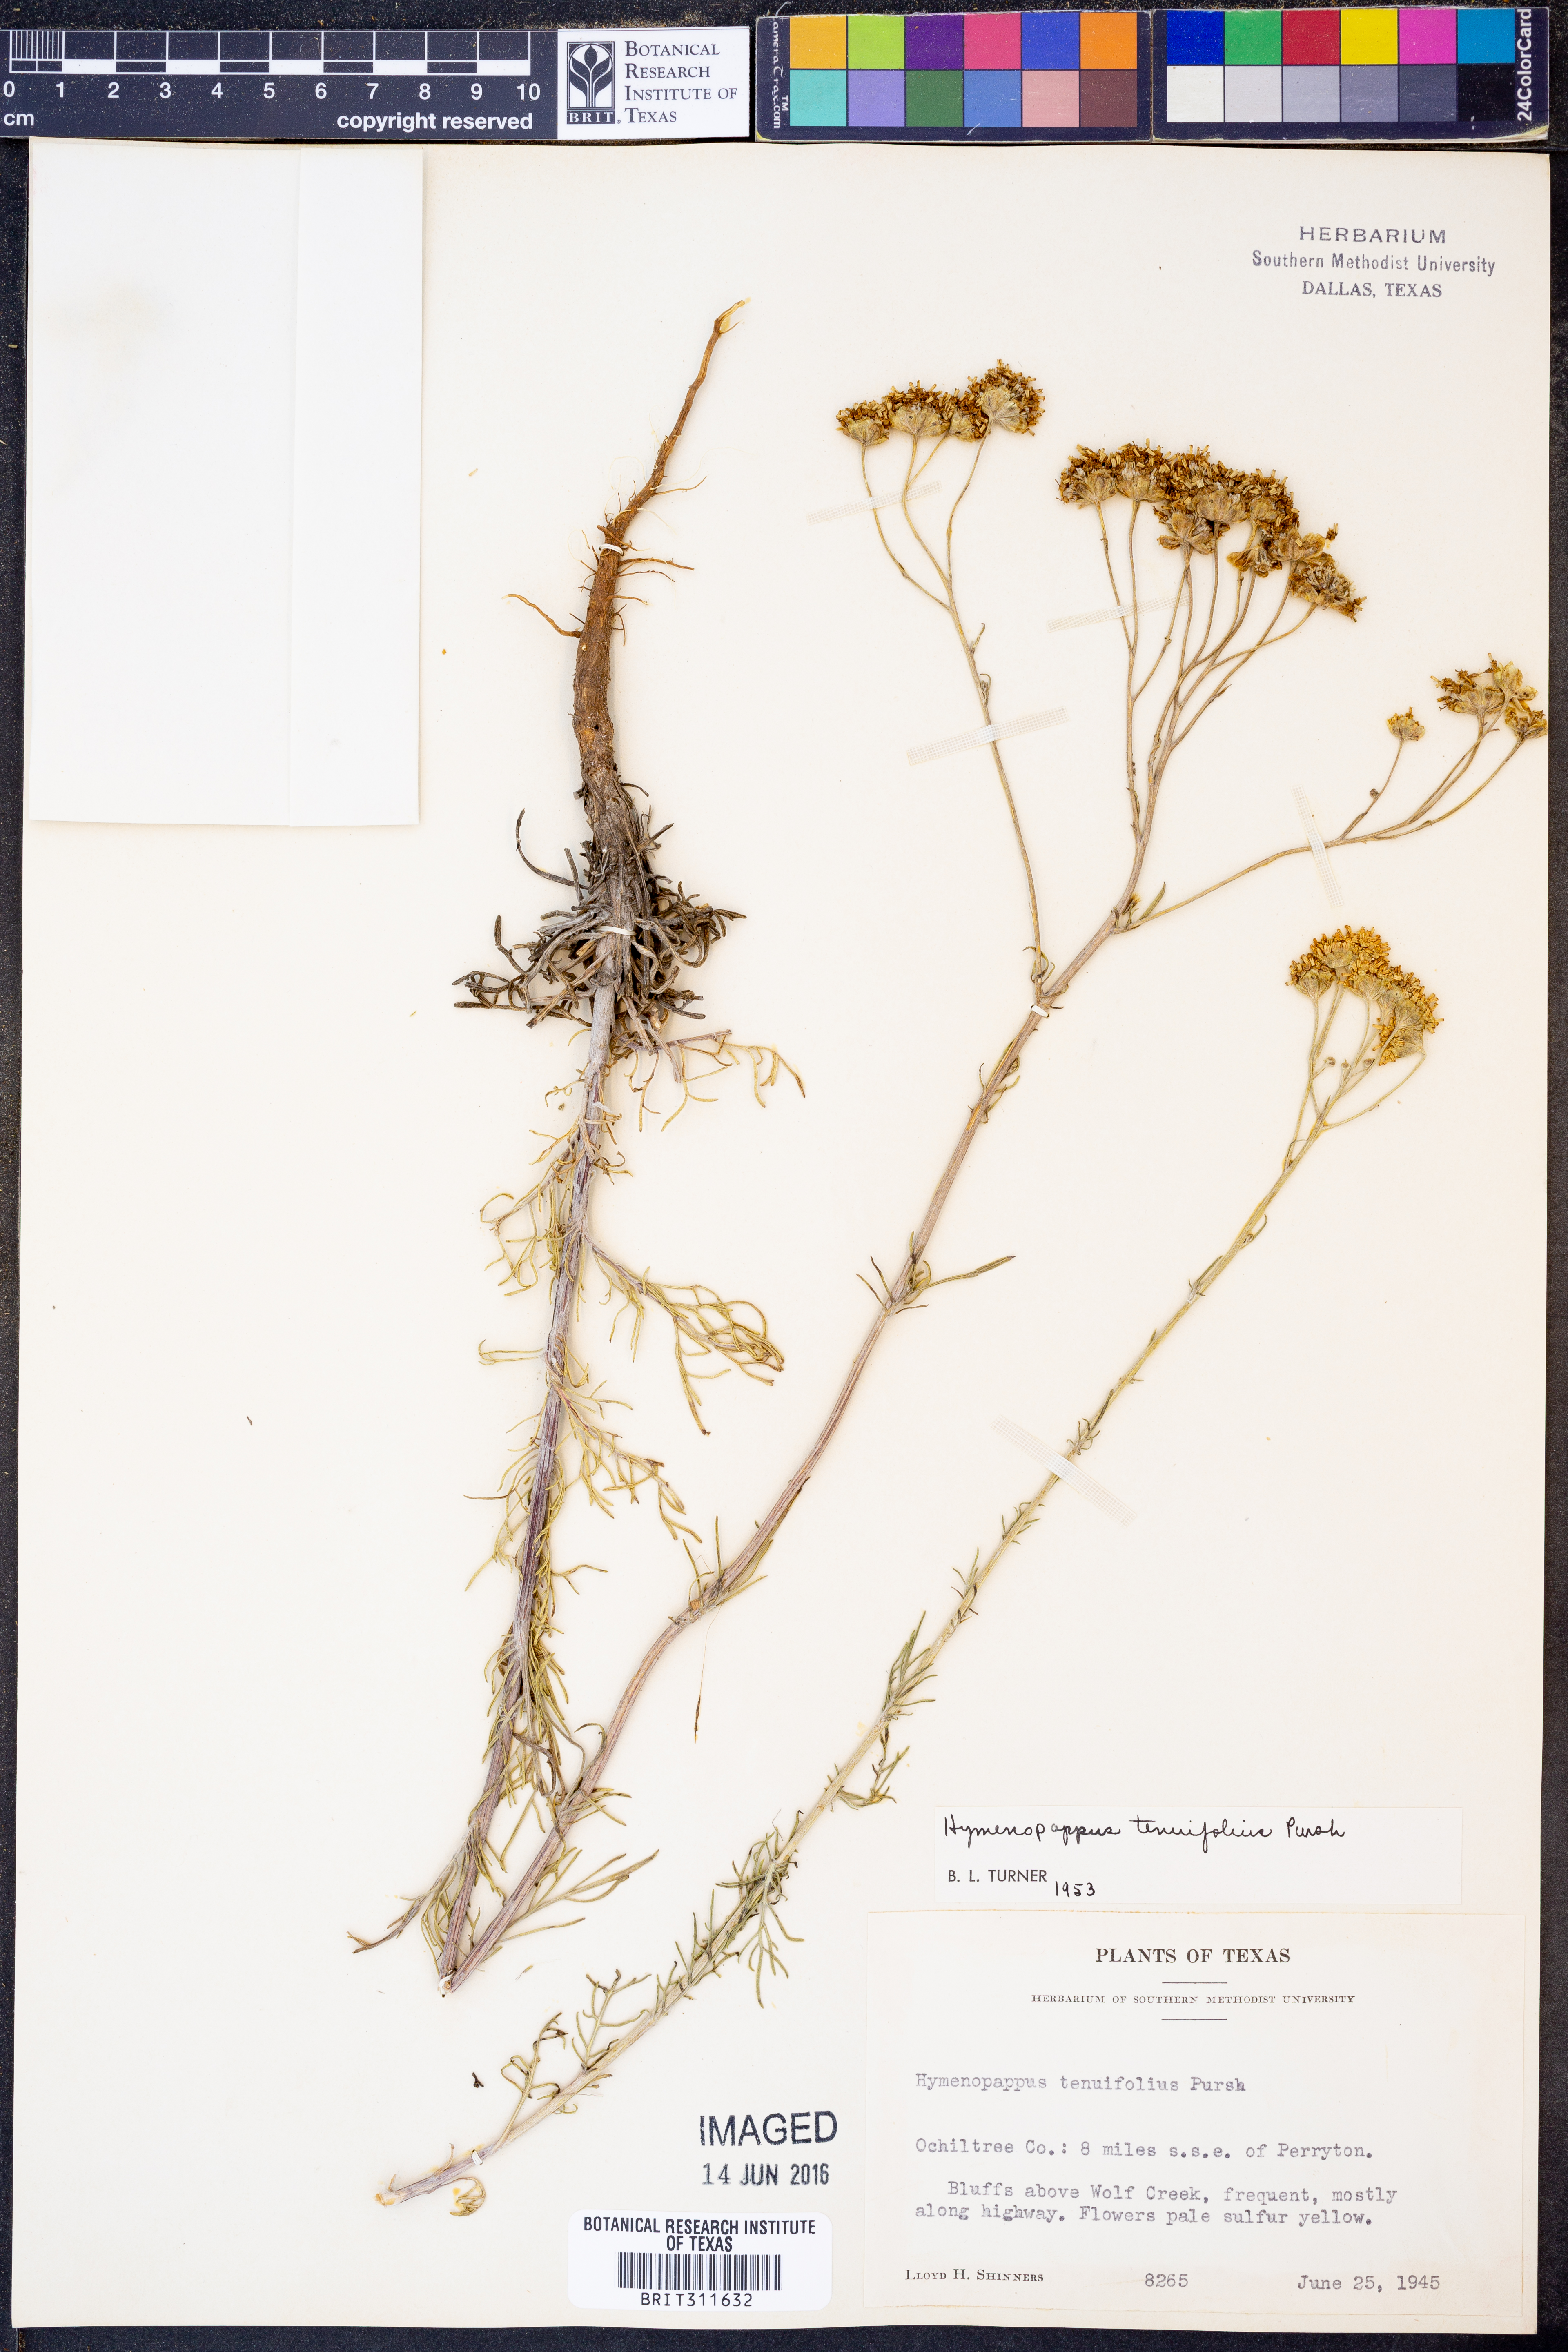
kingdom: Plantae
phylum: Tracheophyta
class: Magnoliopsida
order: Asterales
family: Asteraceae
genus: Hymenopappus
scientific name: Hymenopappus tenuifolius
